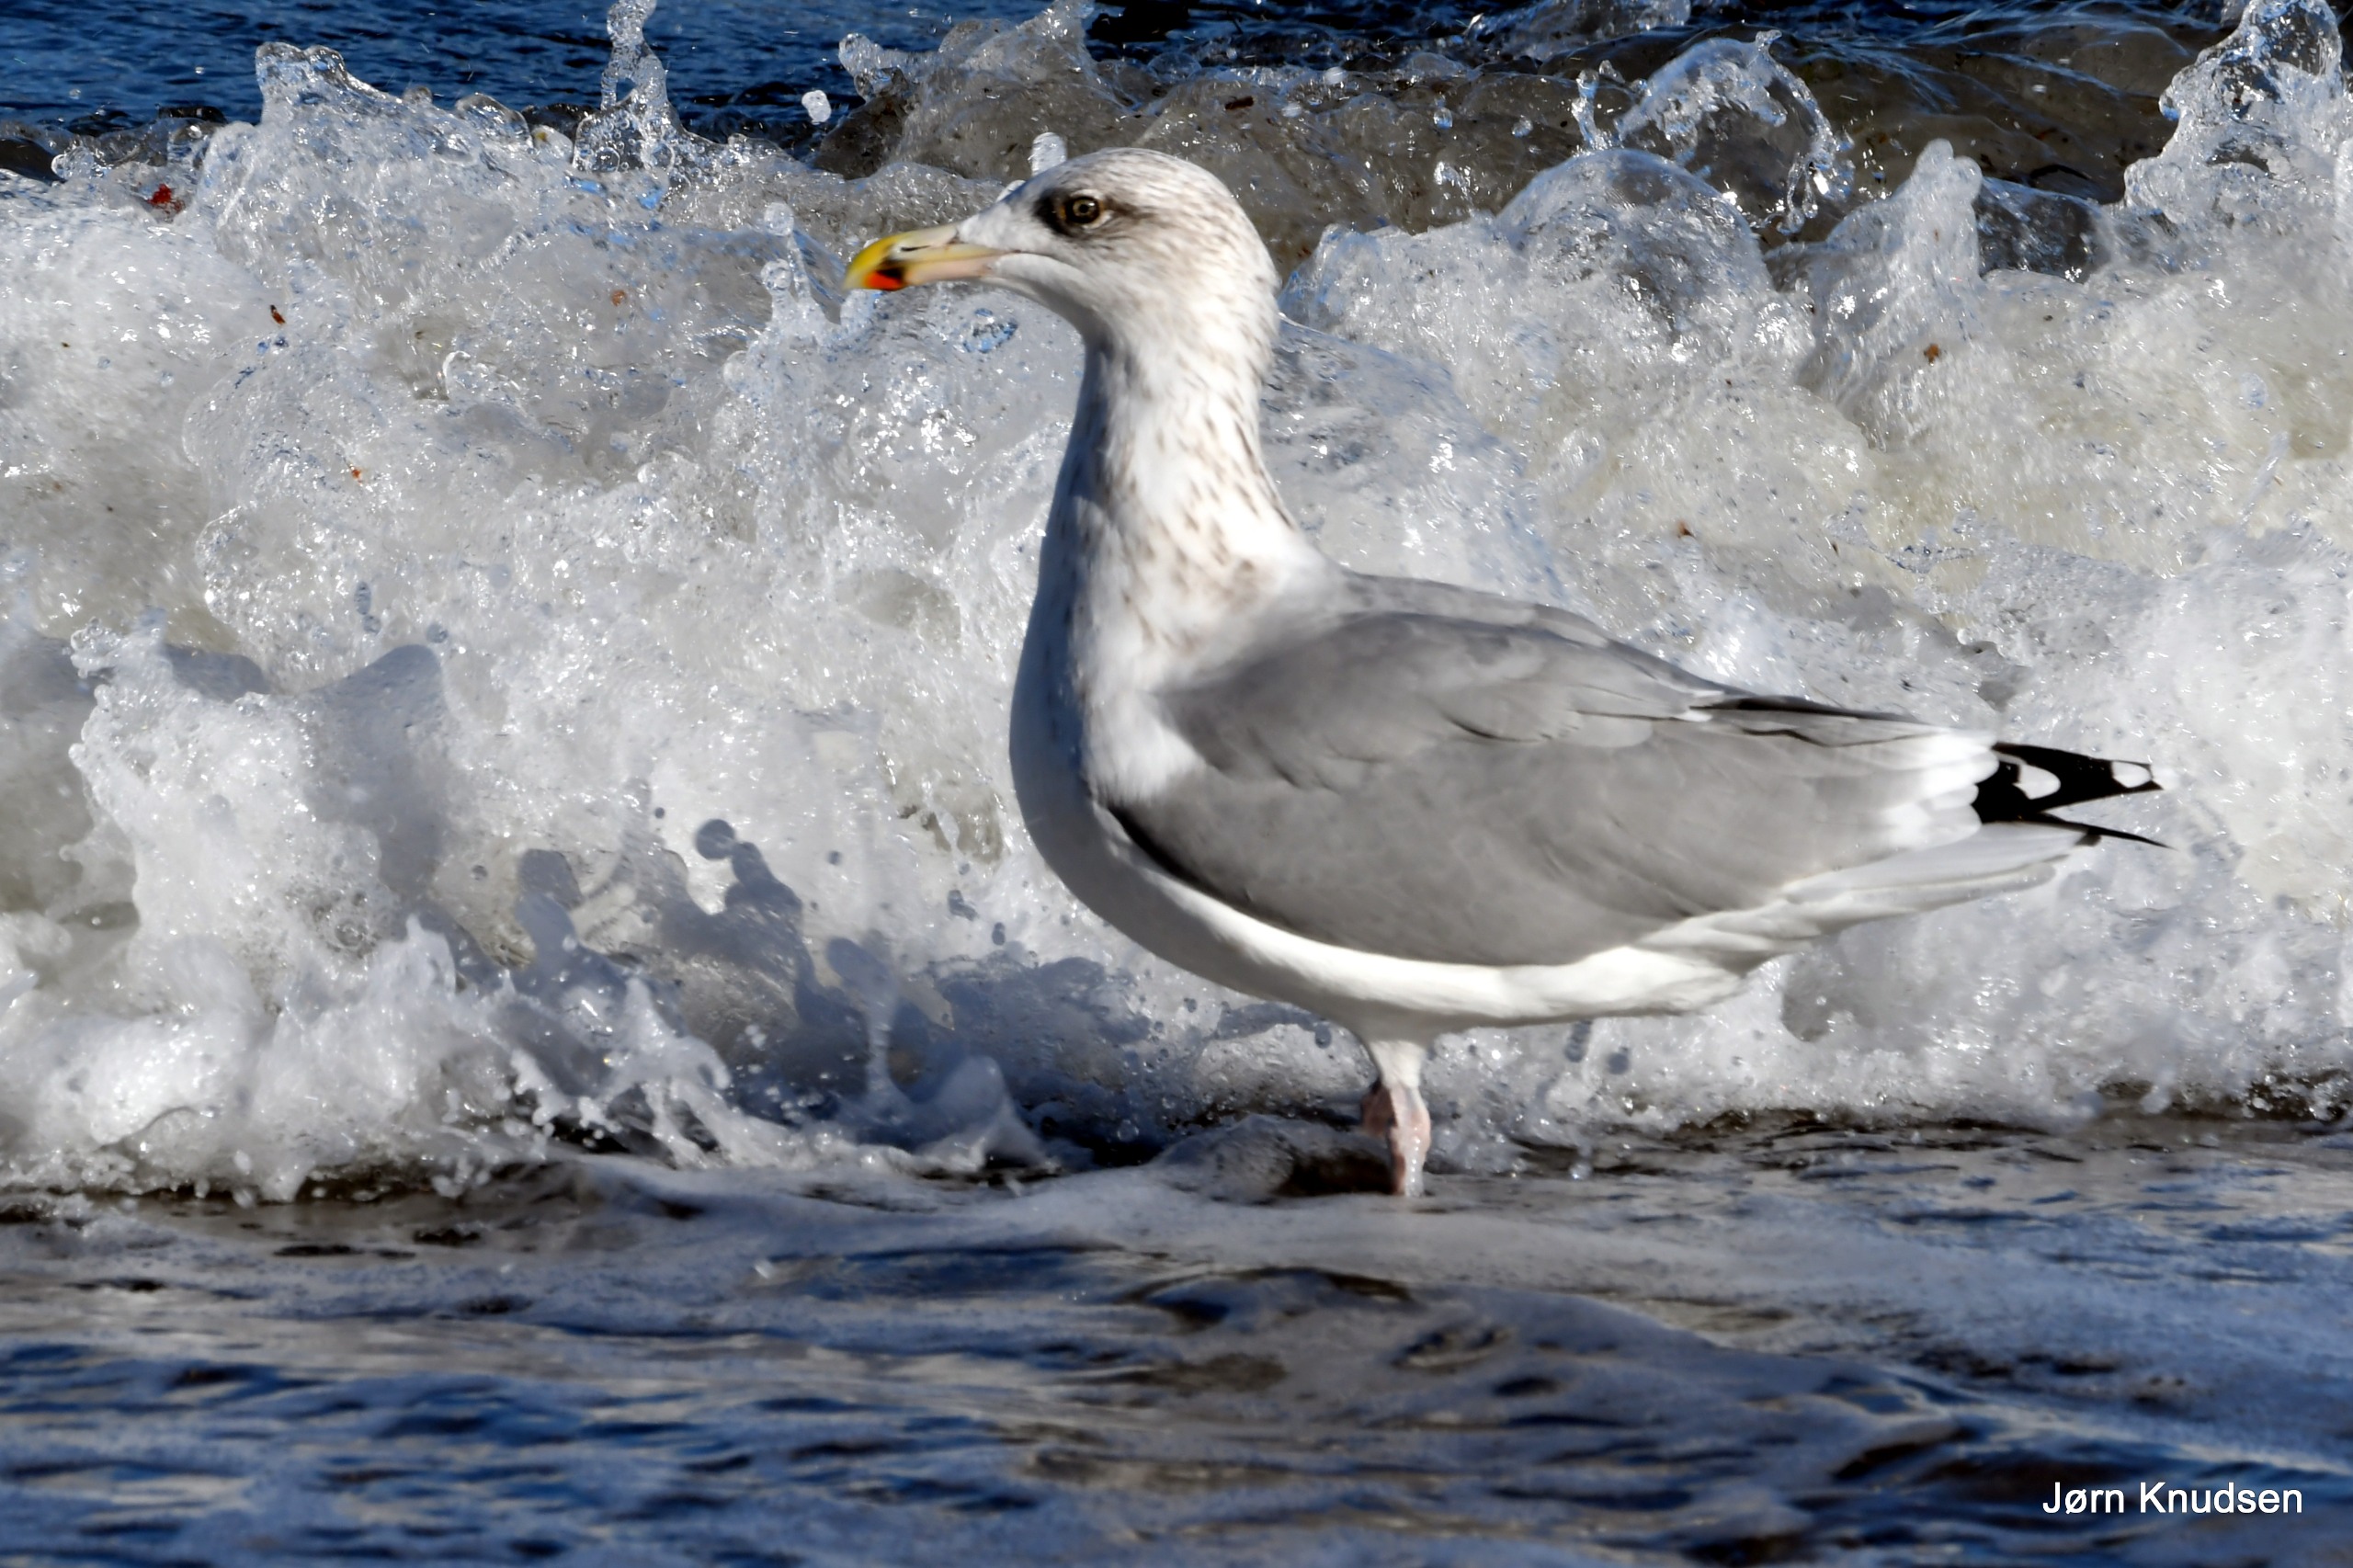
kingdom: Animalia
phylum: Chordata
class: Aves
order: Charadriiformes
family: Laridae
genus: Larus
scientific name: Larus argentatus
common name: Sølvmåge
